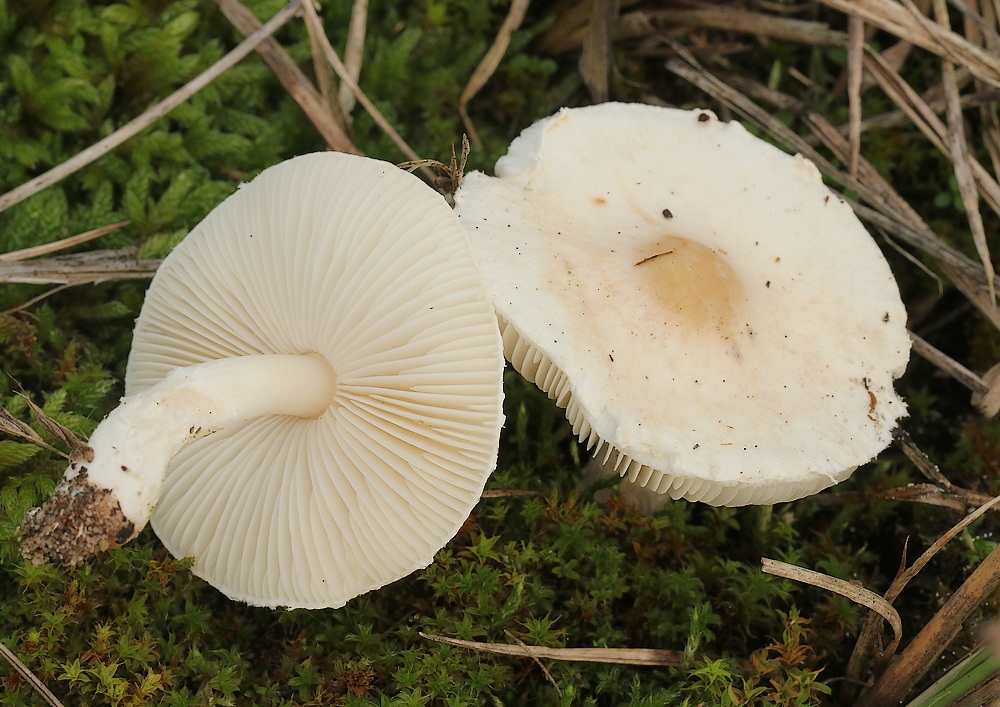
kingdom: Fungi
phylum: Basidiomycota
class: Agaricomycetes
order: Agaricales
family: Agaricaceae
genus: Lepiota
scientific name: Lepiota erminea
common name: hvid parasolhat
